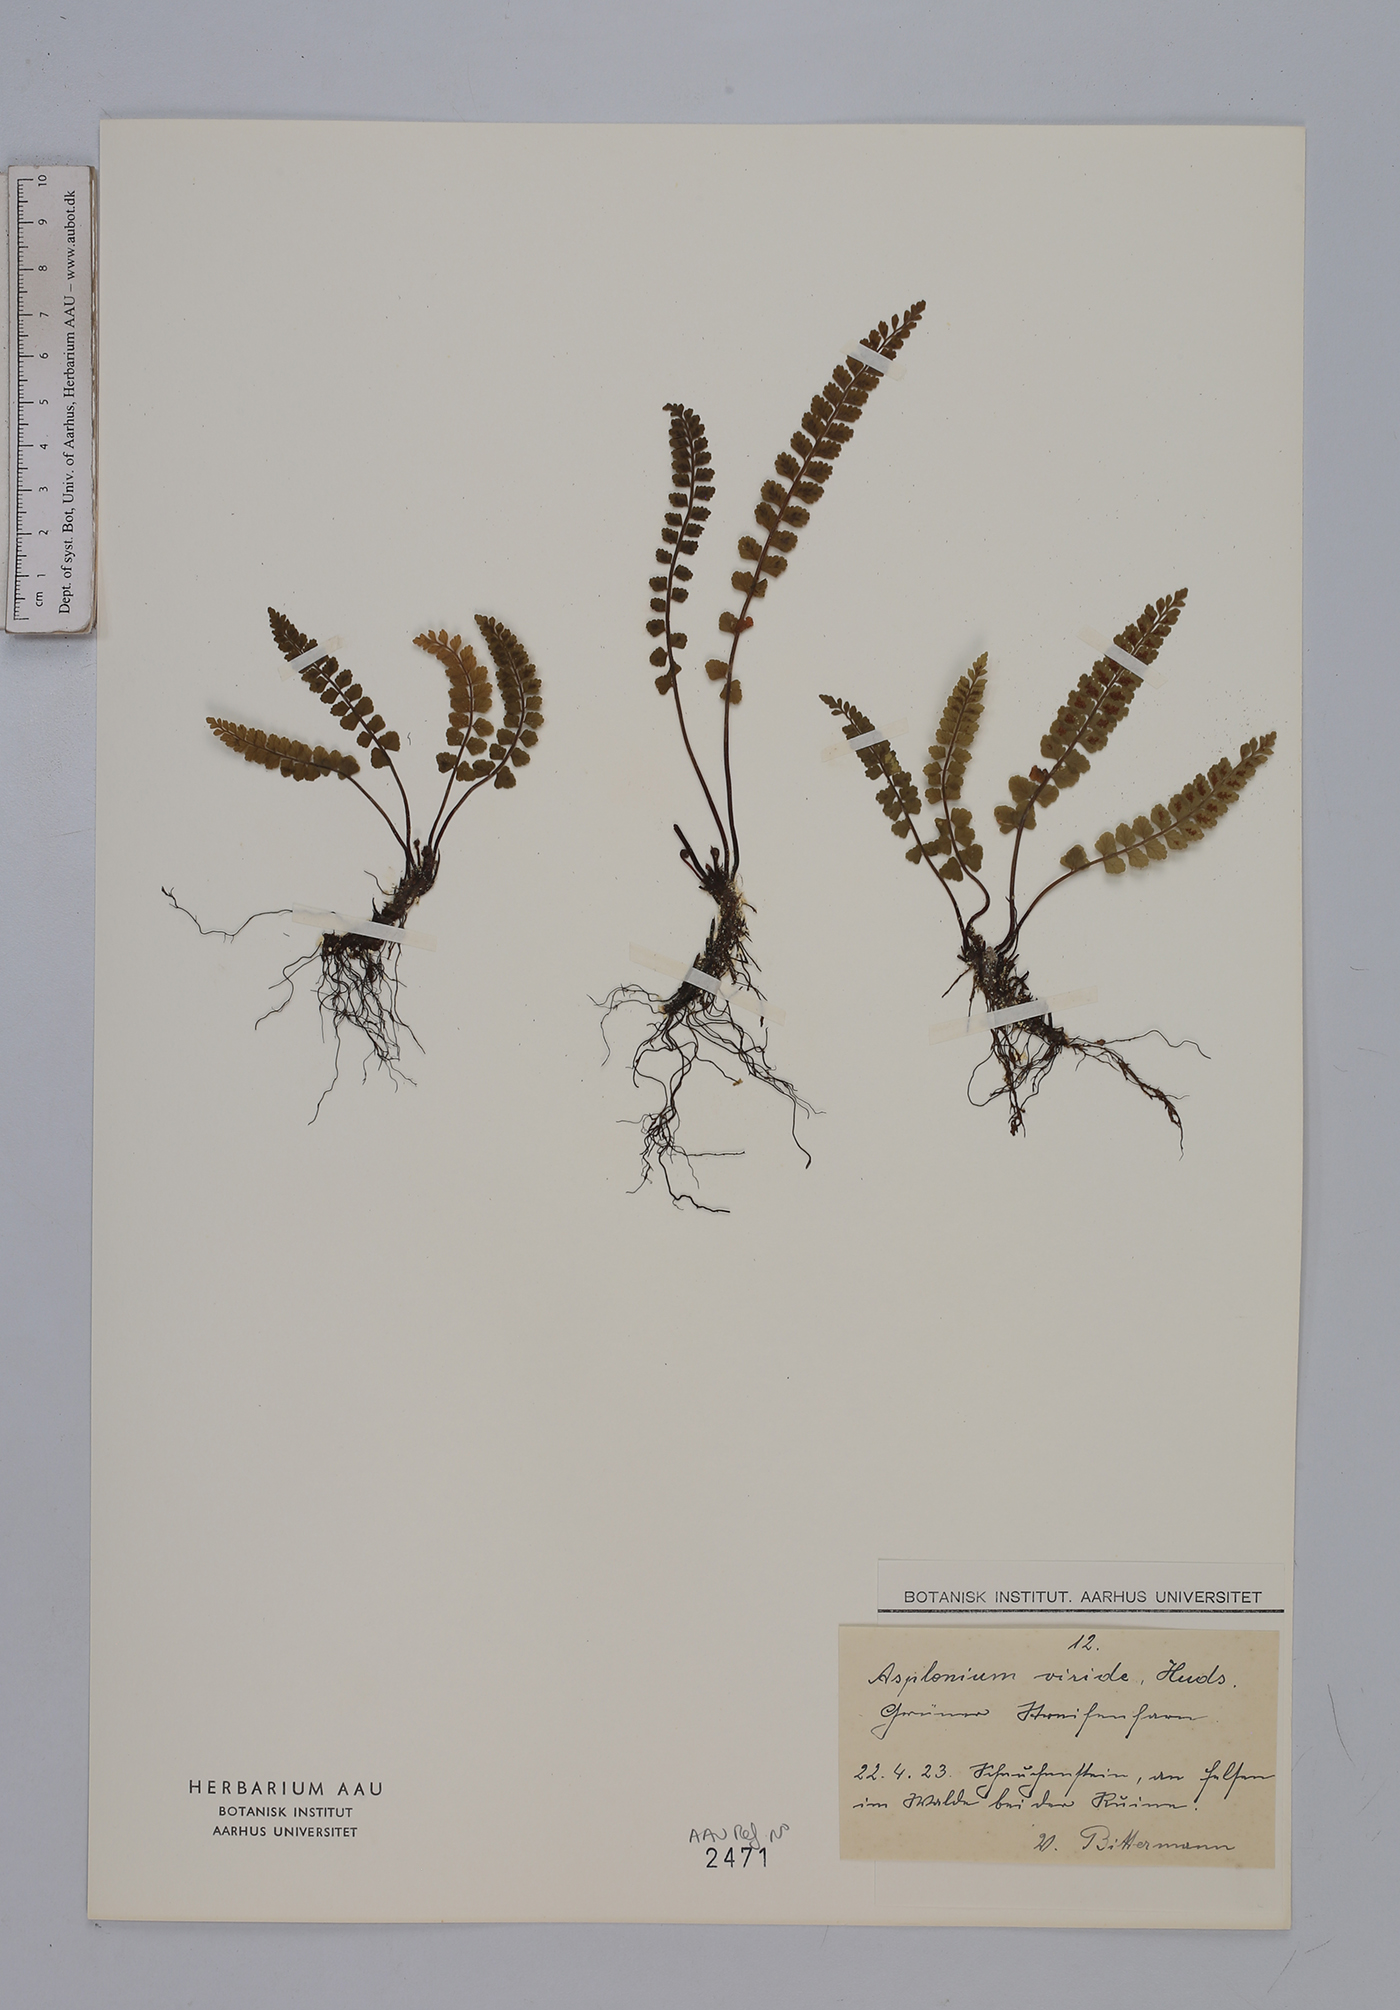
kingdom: Plantae
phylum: Tracheophyta
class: Polypodiopsida
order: Polypodiales
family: Aspleniaceae
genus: Asplenium
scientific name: Asplenium viride
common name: Green spleenwort
